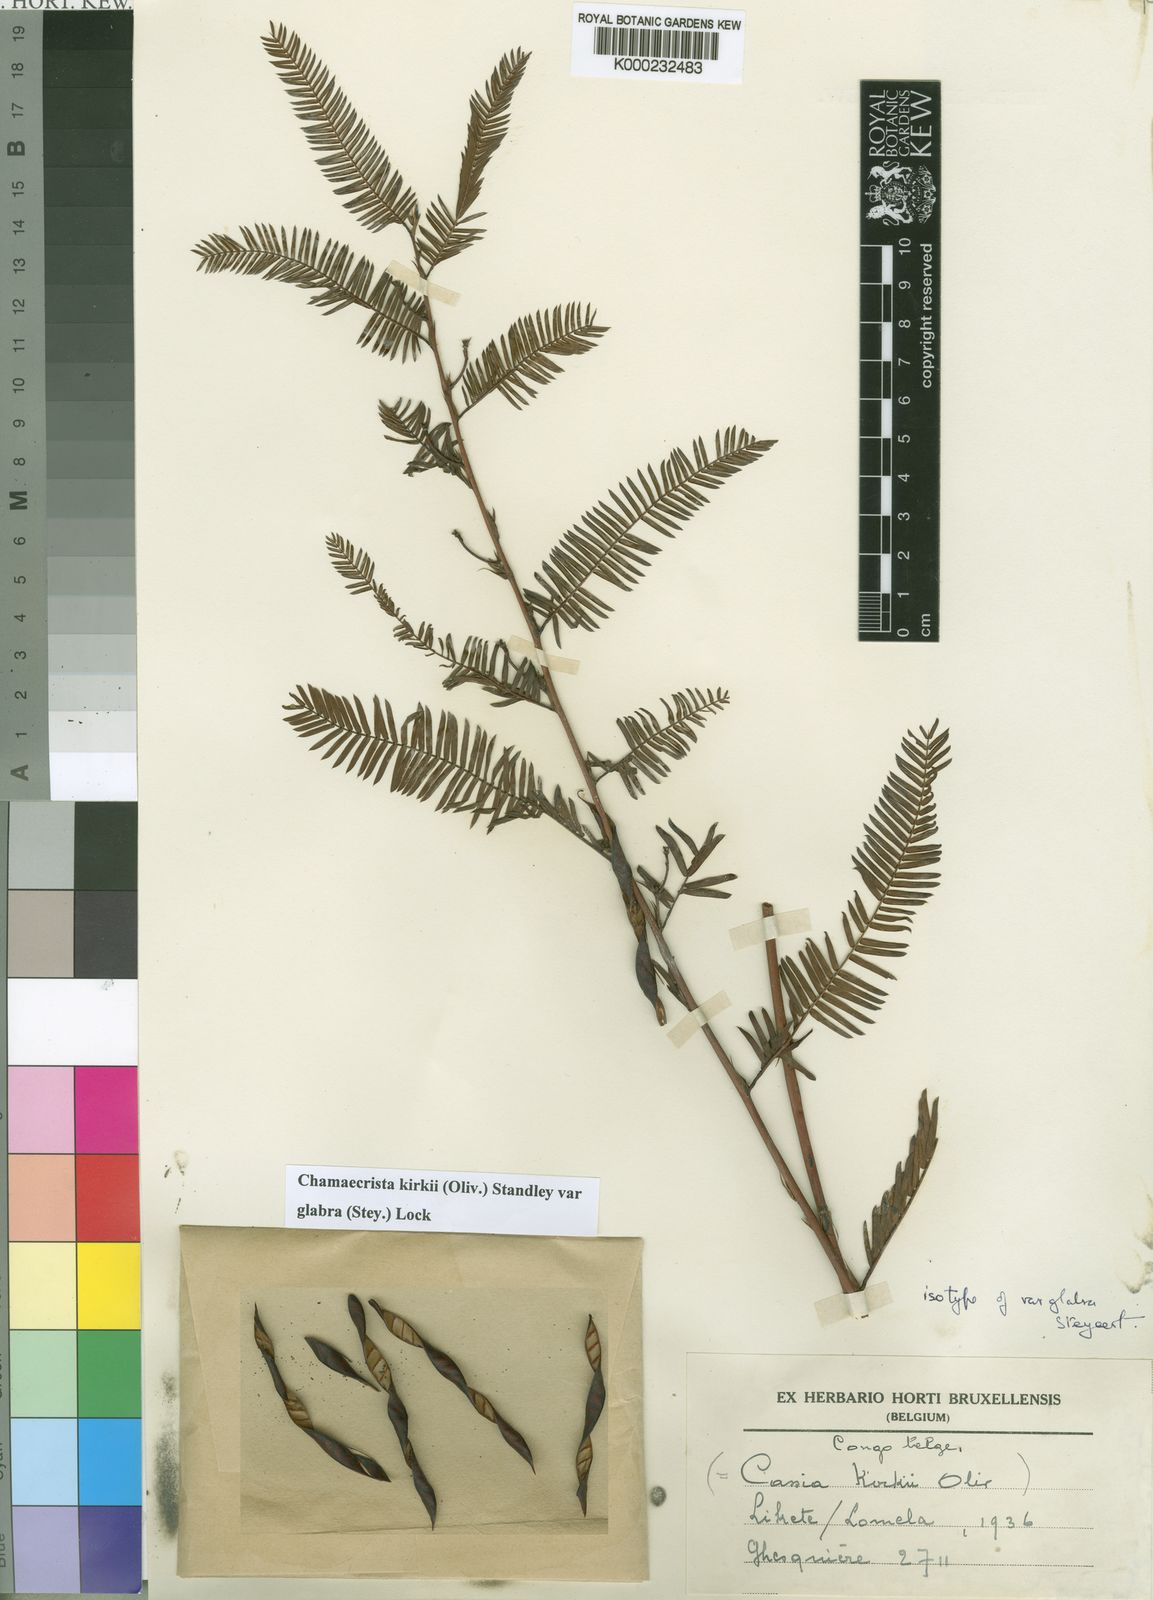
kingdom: Plantae
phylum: Tracheophyta
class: Magnoliopsida
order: Fabales
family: Fabaceae
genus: Chamaecrista
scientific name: Chamaecrista kirkii
